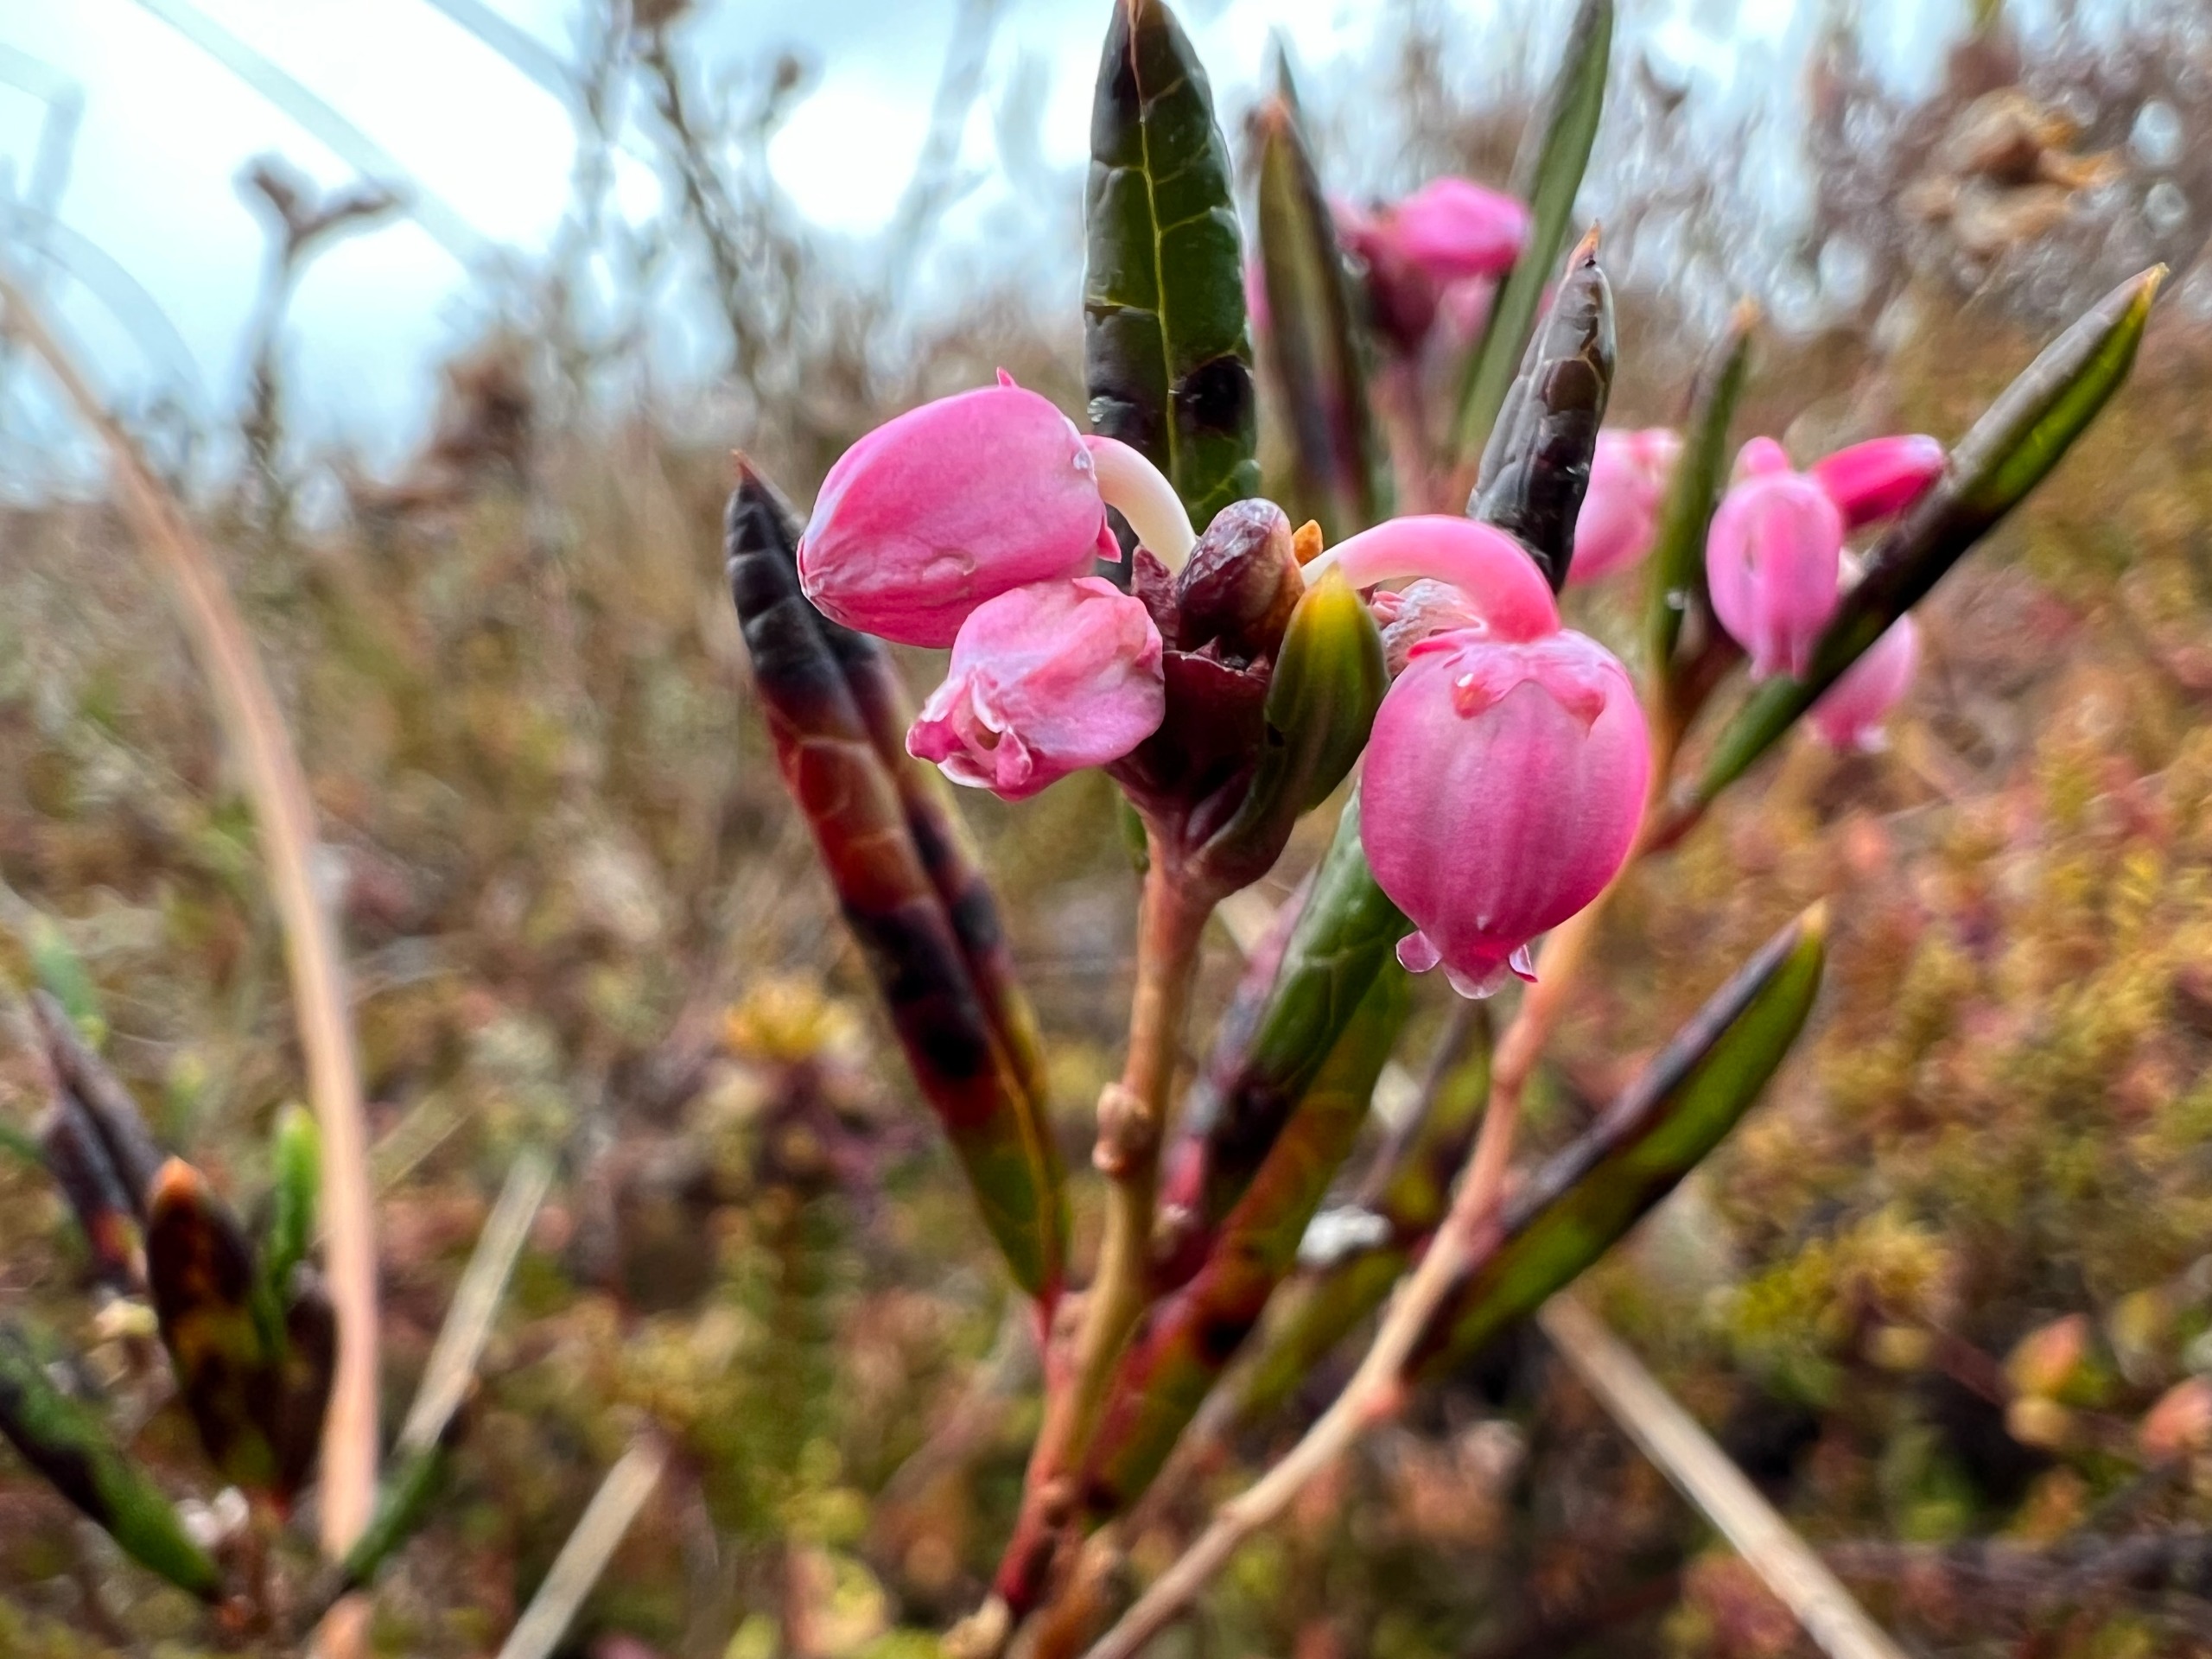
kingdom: Plantae
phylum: Tracheophyta
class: Magnoliopsida
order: Ericales
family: Ericaceae
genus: Andromeda
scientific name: Andromeda polifolia
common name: Rosmarinlyng
